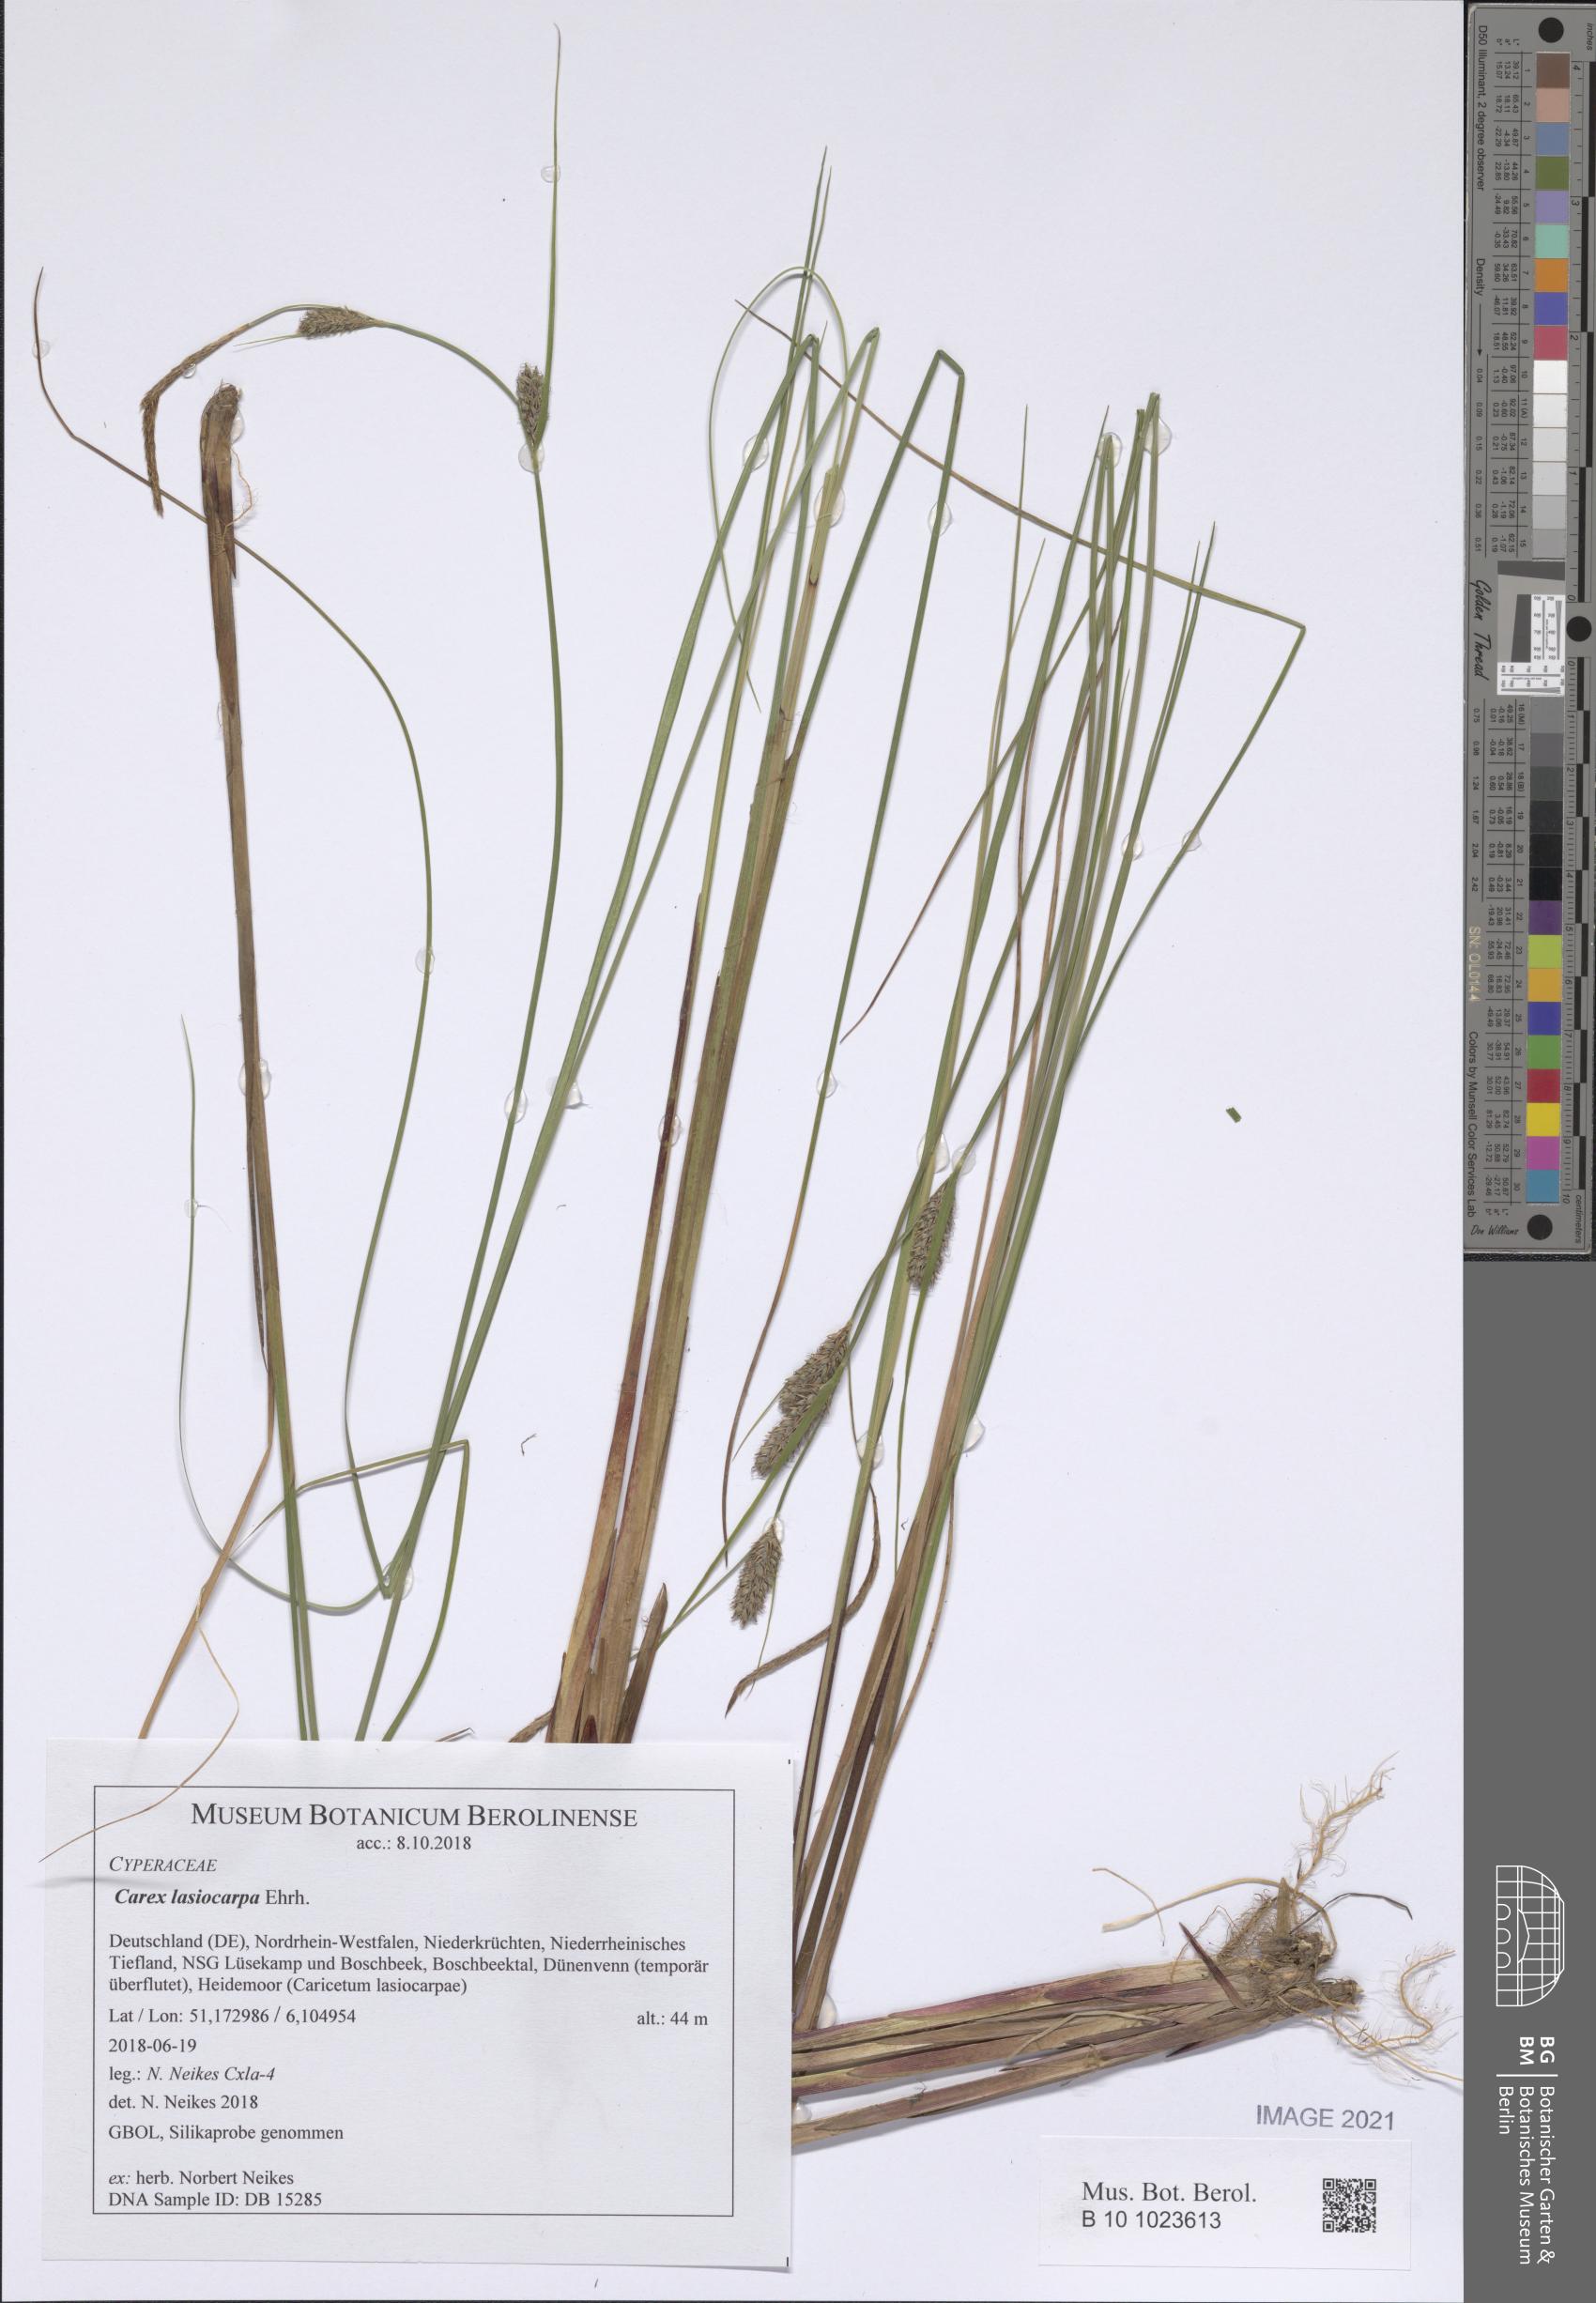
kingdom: Plantae
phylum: Tracheophyta
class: Liliopsida
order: Poales
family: Cyperaceae
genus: Carex
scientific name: Carex lasiocarpa
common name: Slender sedge
